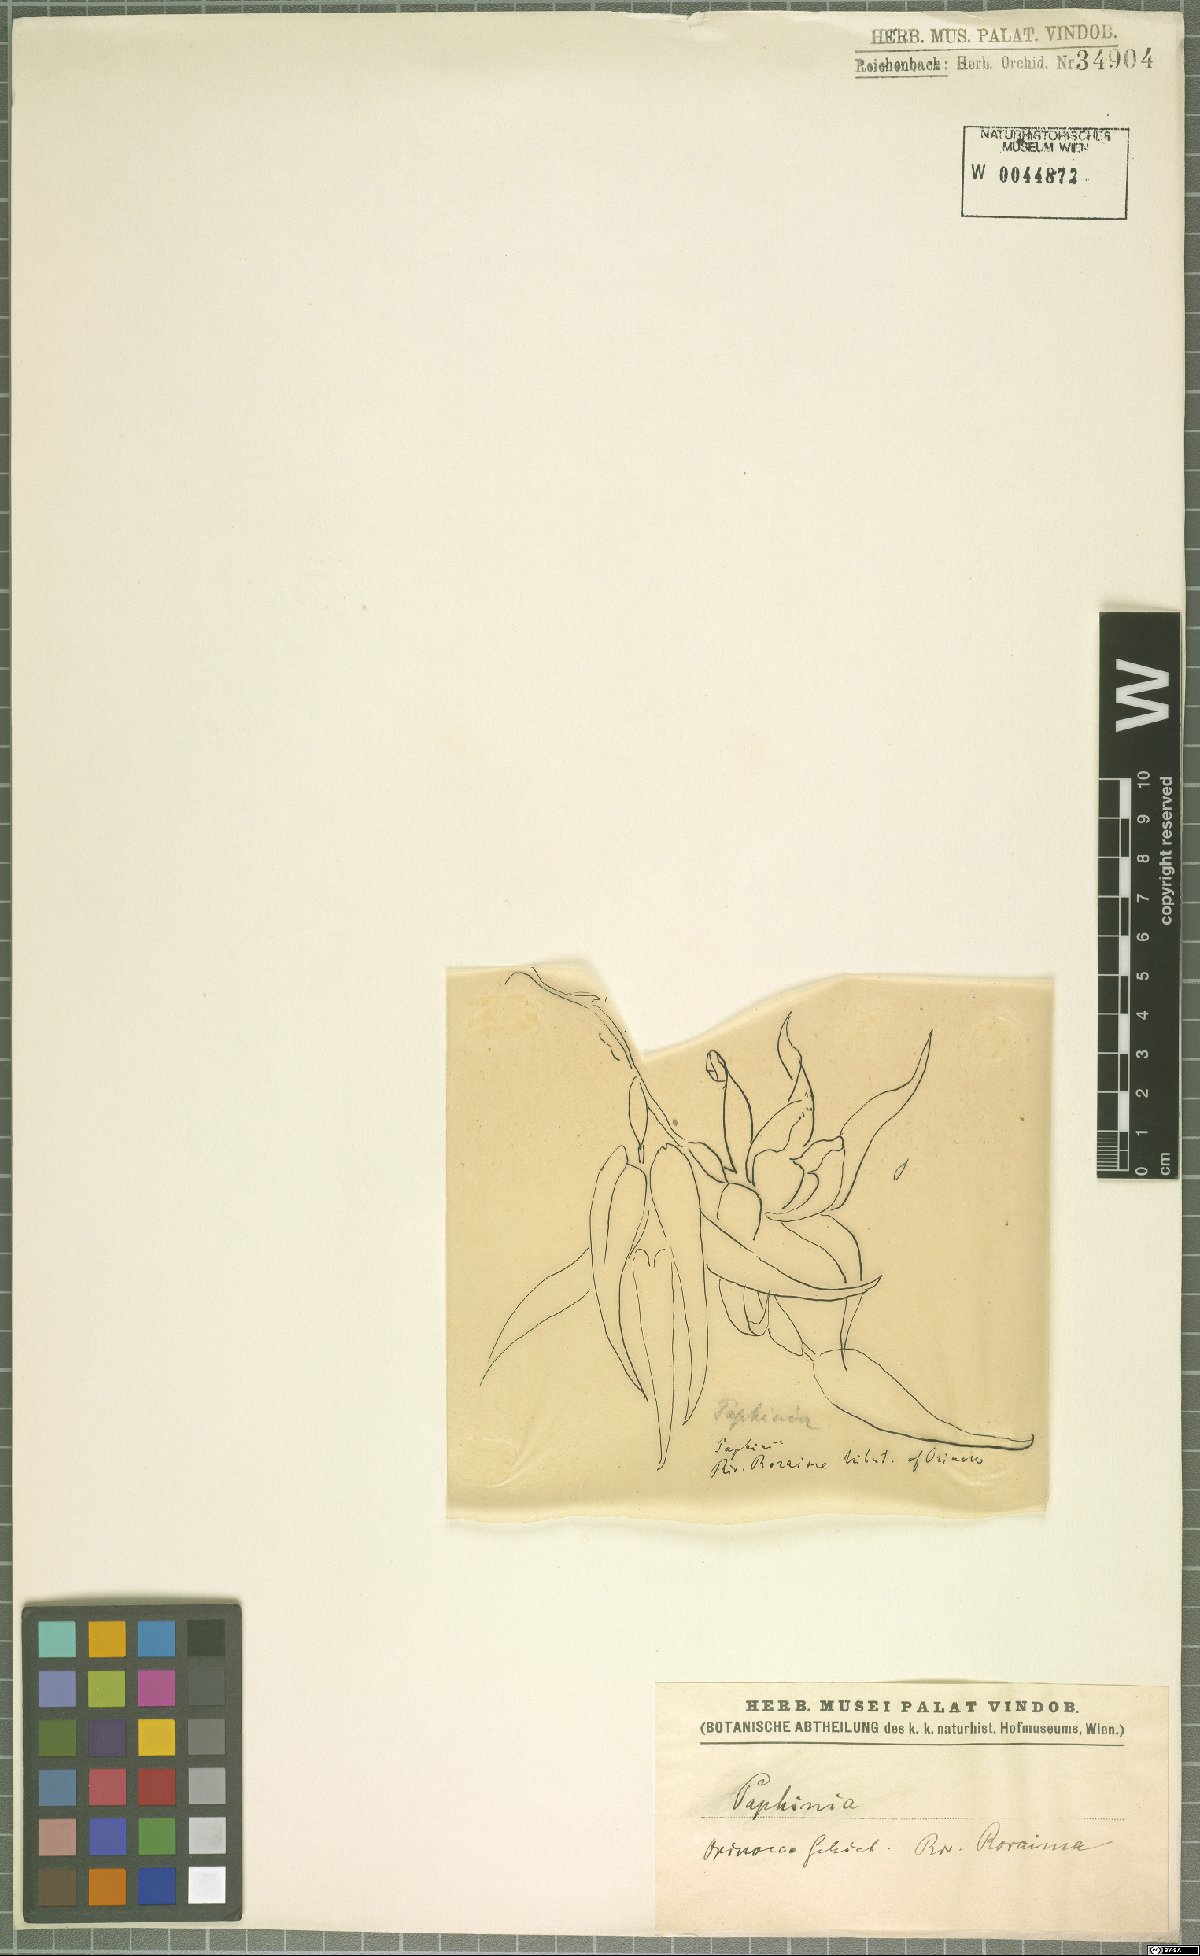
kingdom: Plantae
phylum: Tracheophyta
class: Liliopsida
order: Asparagales
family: Orchidaceae
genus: Paphinia
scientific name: Paphinia
